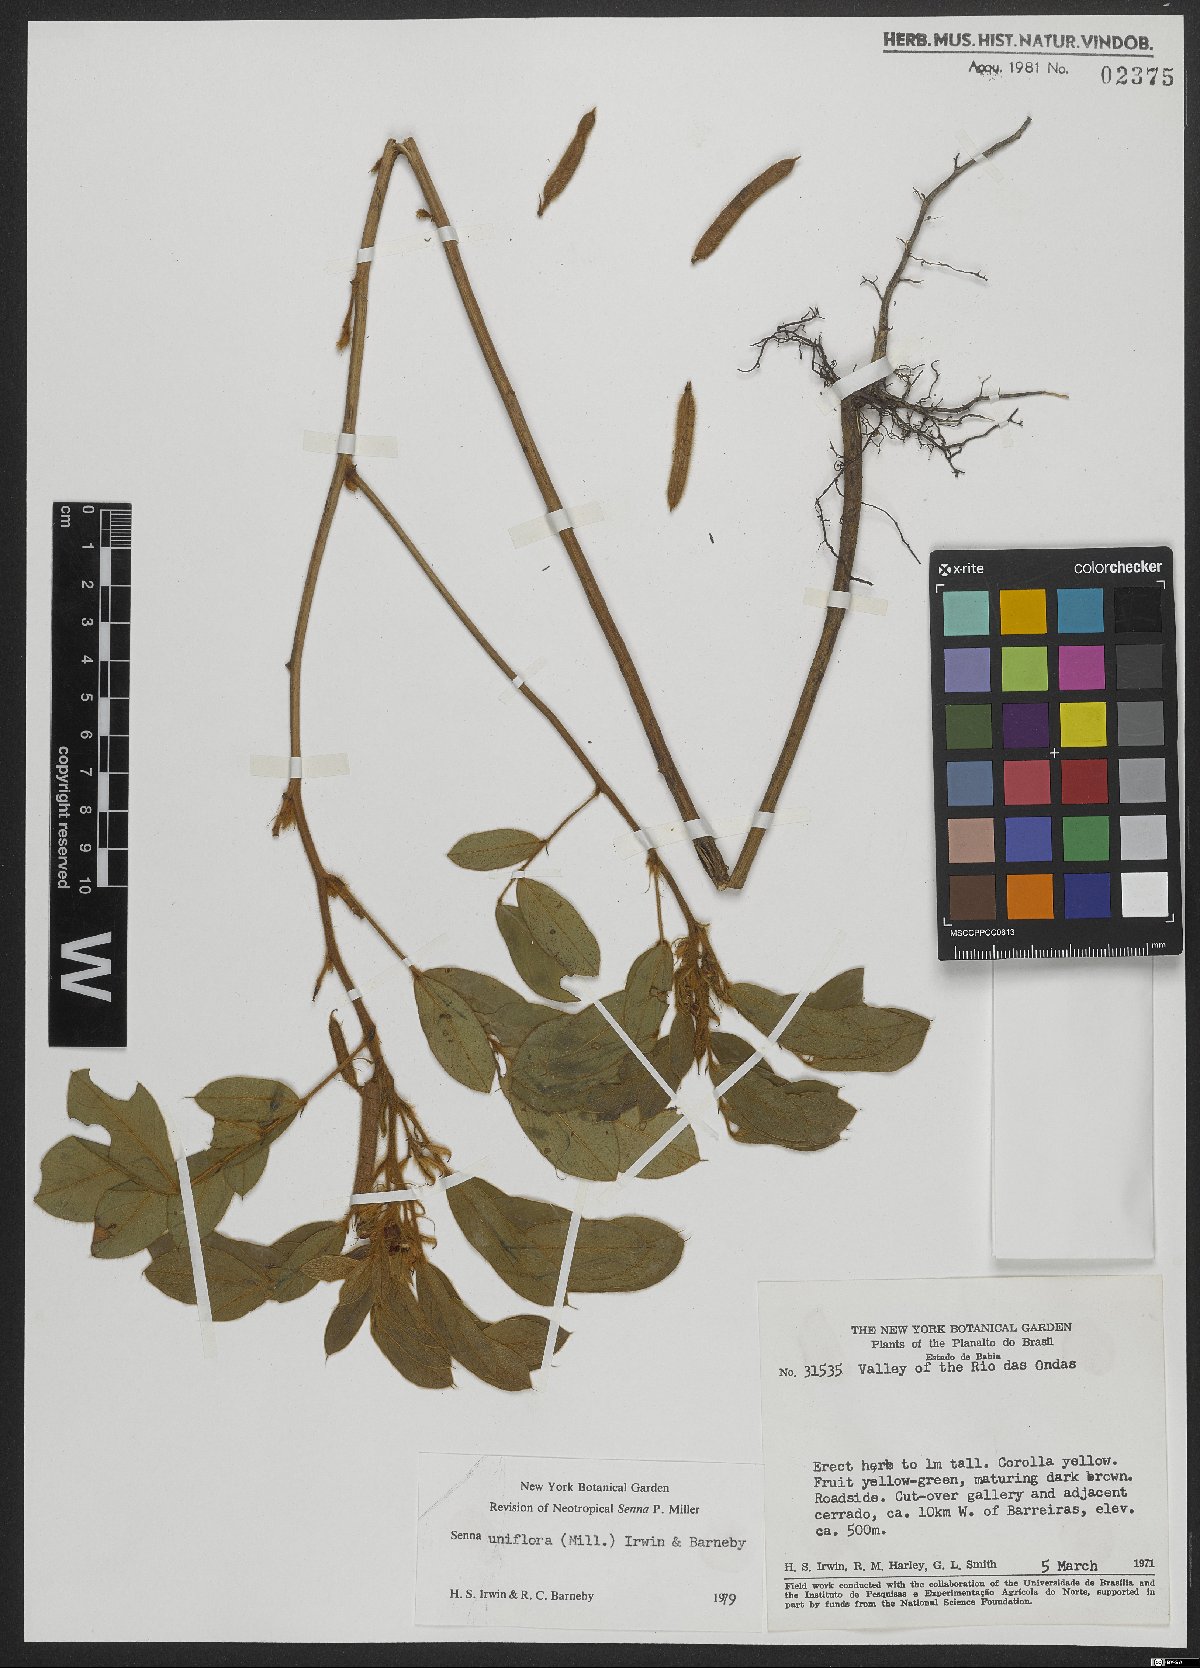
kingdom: Plantae
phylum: Tracheophyta
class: Magnoliopsida
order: Fabales
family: Fabaceae
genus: Senna
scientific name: Senna angulata
